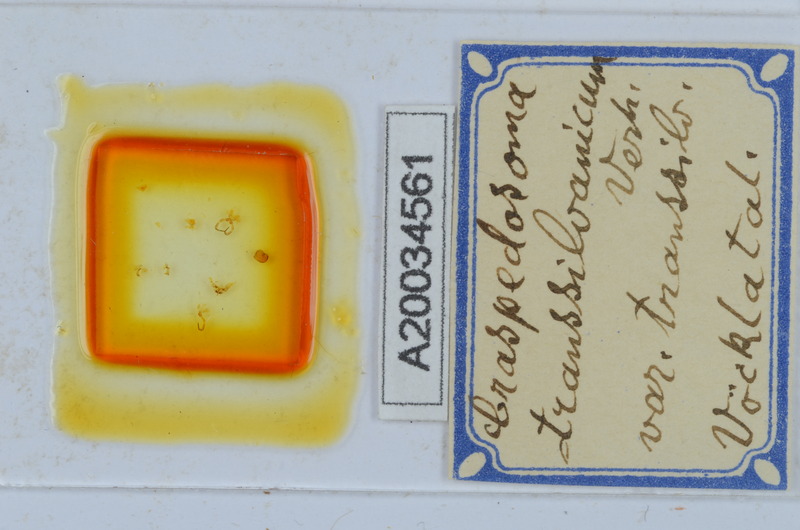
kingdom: Animalia
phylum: Arthropoda
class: Diplopoda
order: Chordeumatida
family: Craspedosomatidae
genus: Craspedosoma
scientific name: Craspedosoma rawlinsii
